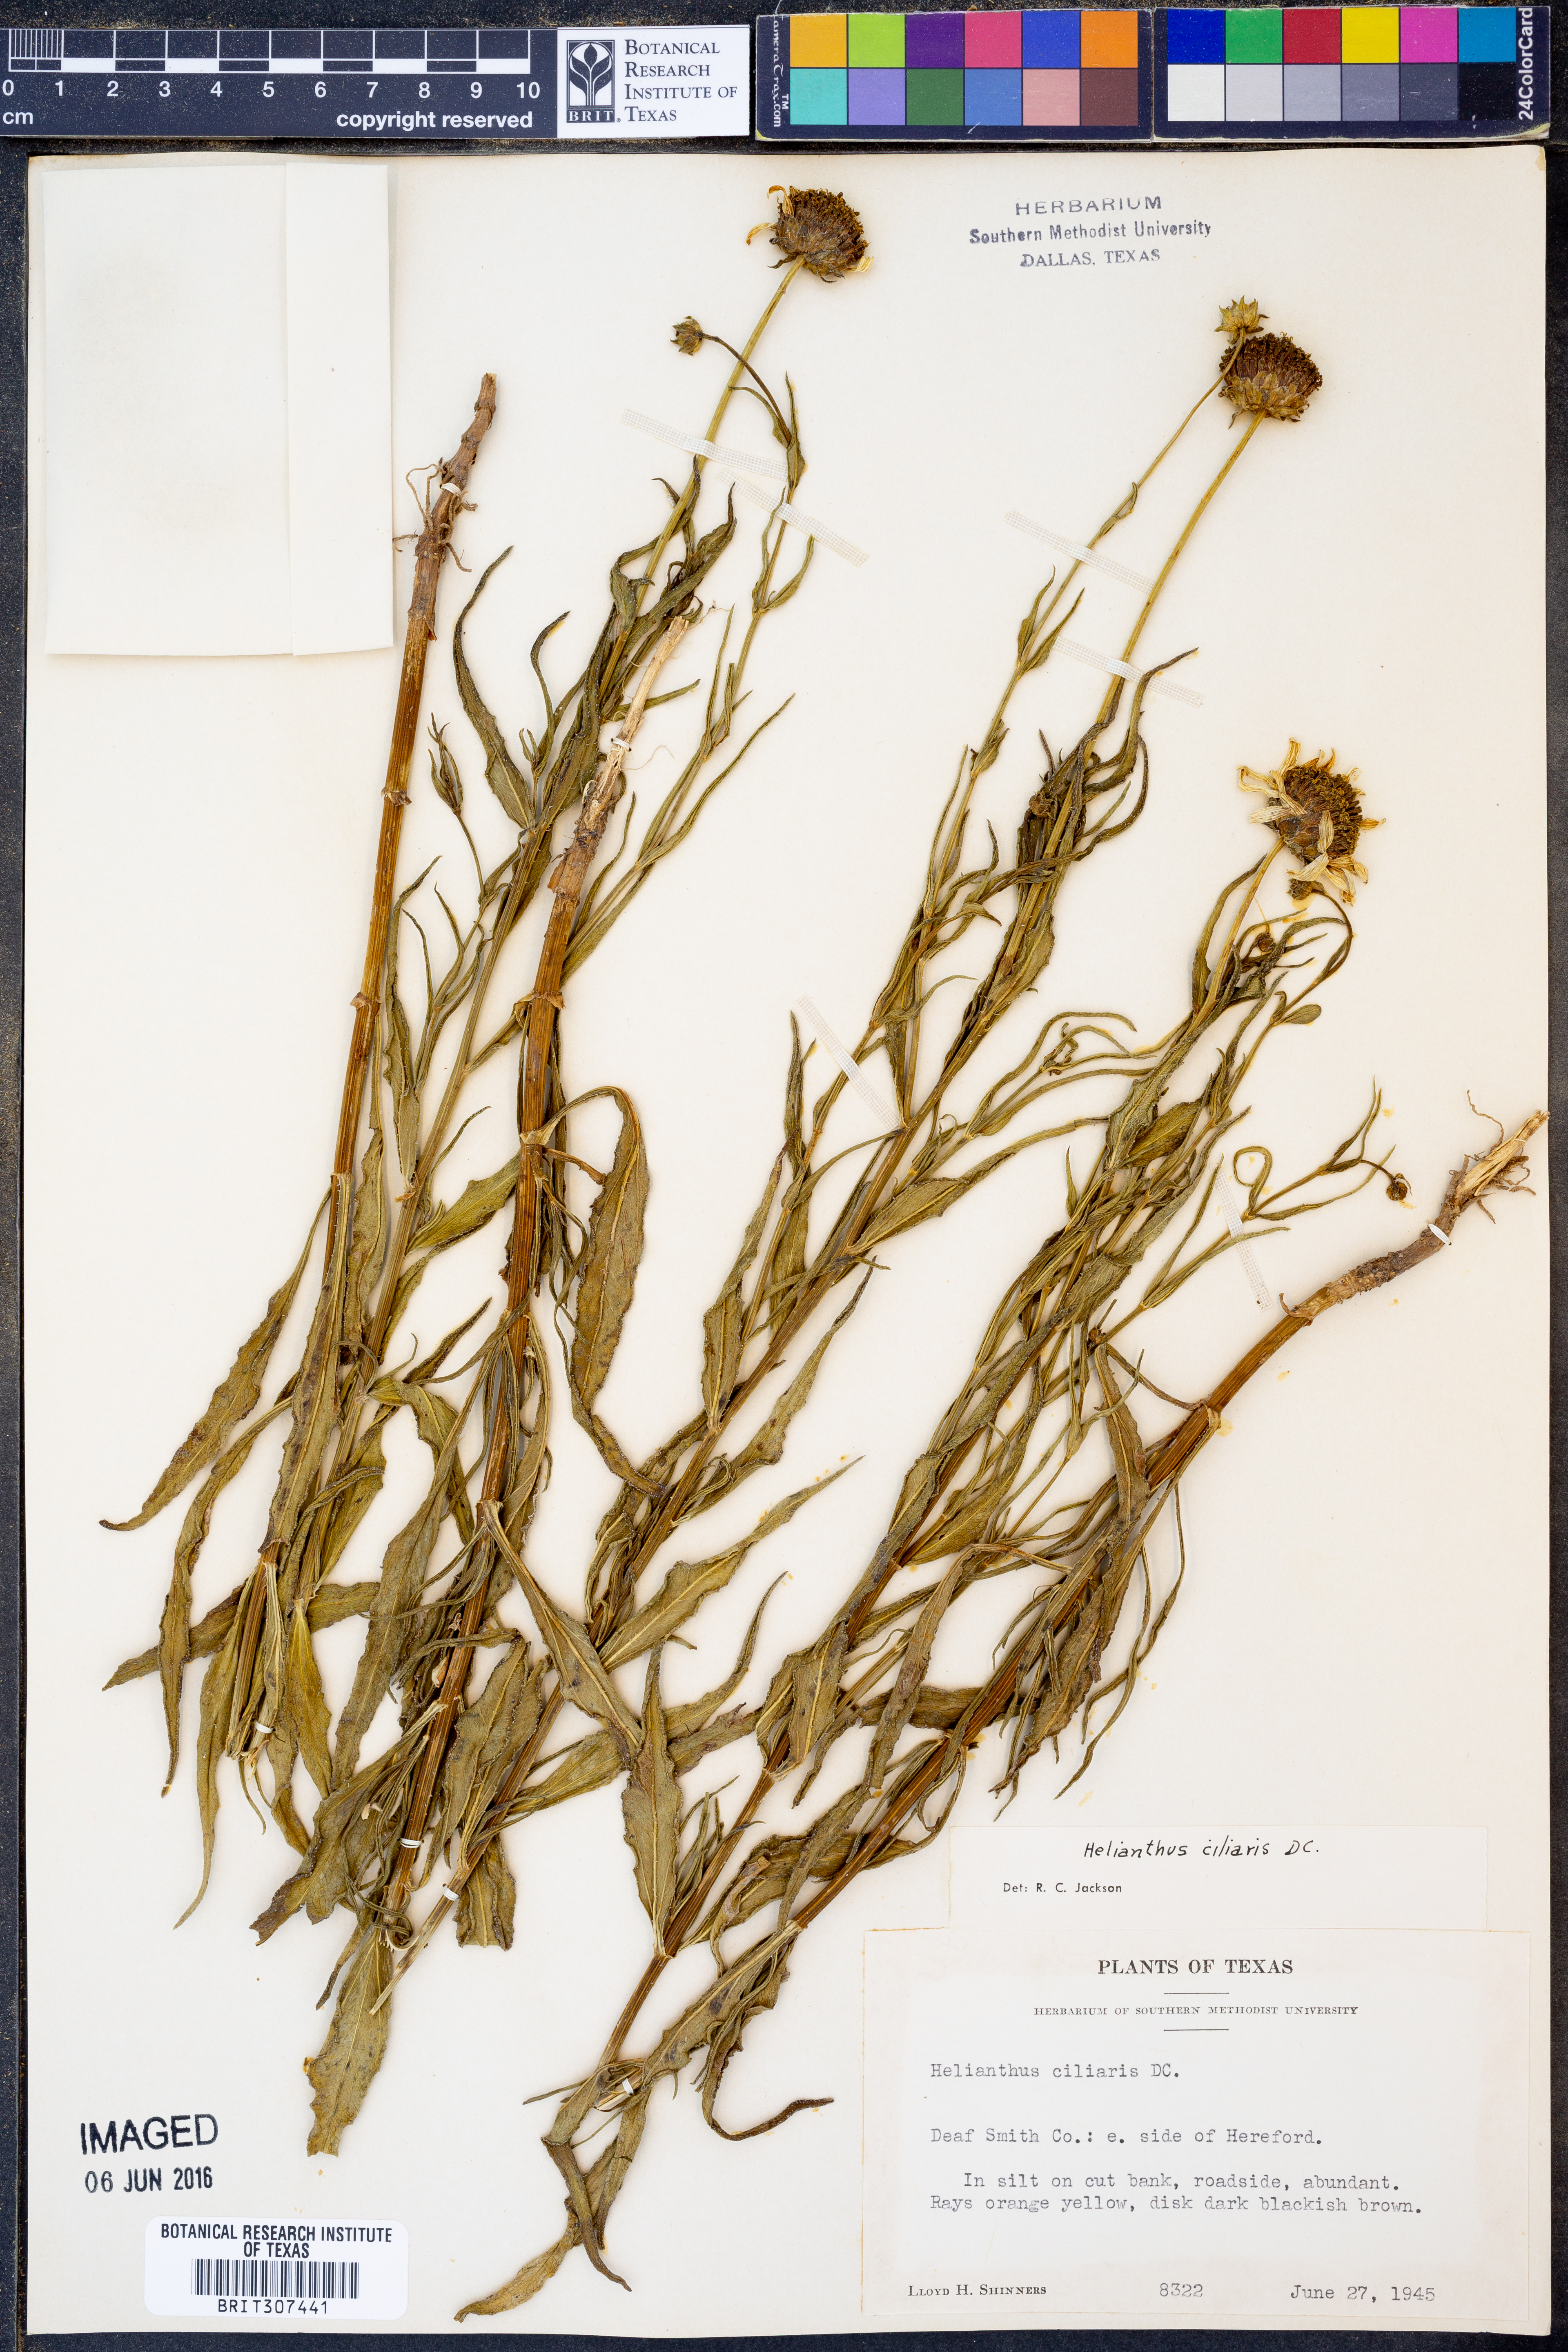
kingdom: Plantae
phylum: Tracheophyta
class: Magnoliopsida
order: Asterales
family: Asteraceae
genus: Helianthus
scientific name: Helianthus ciliaris
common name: Texas blueweed
